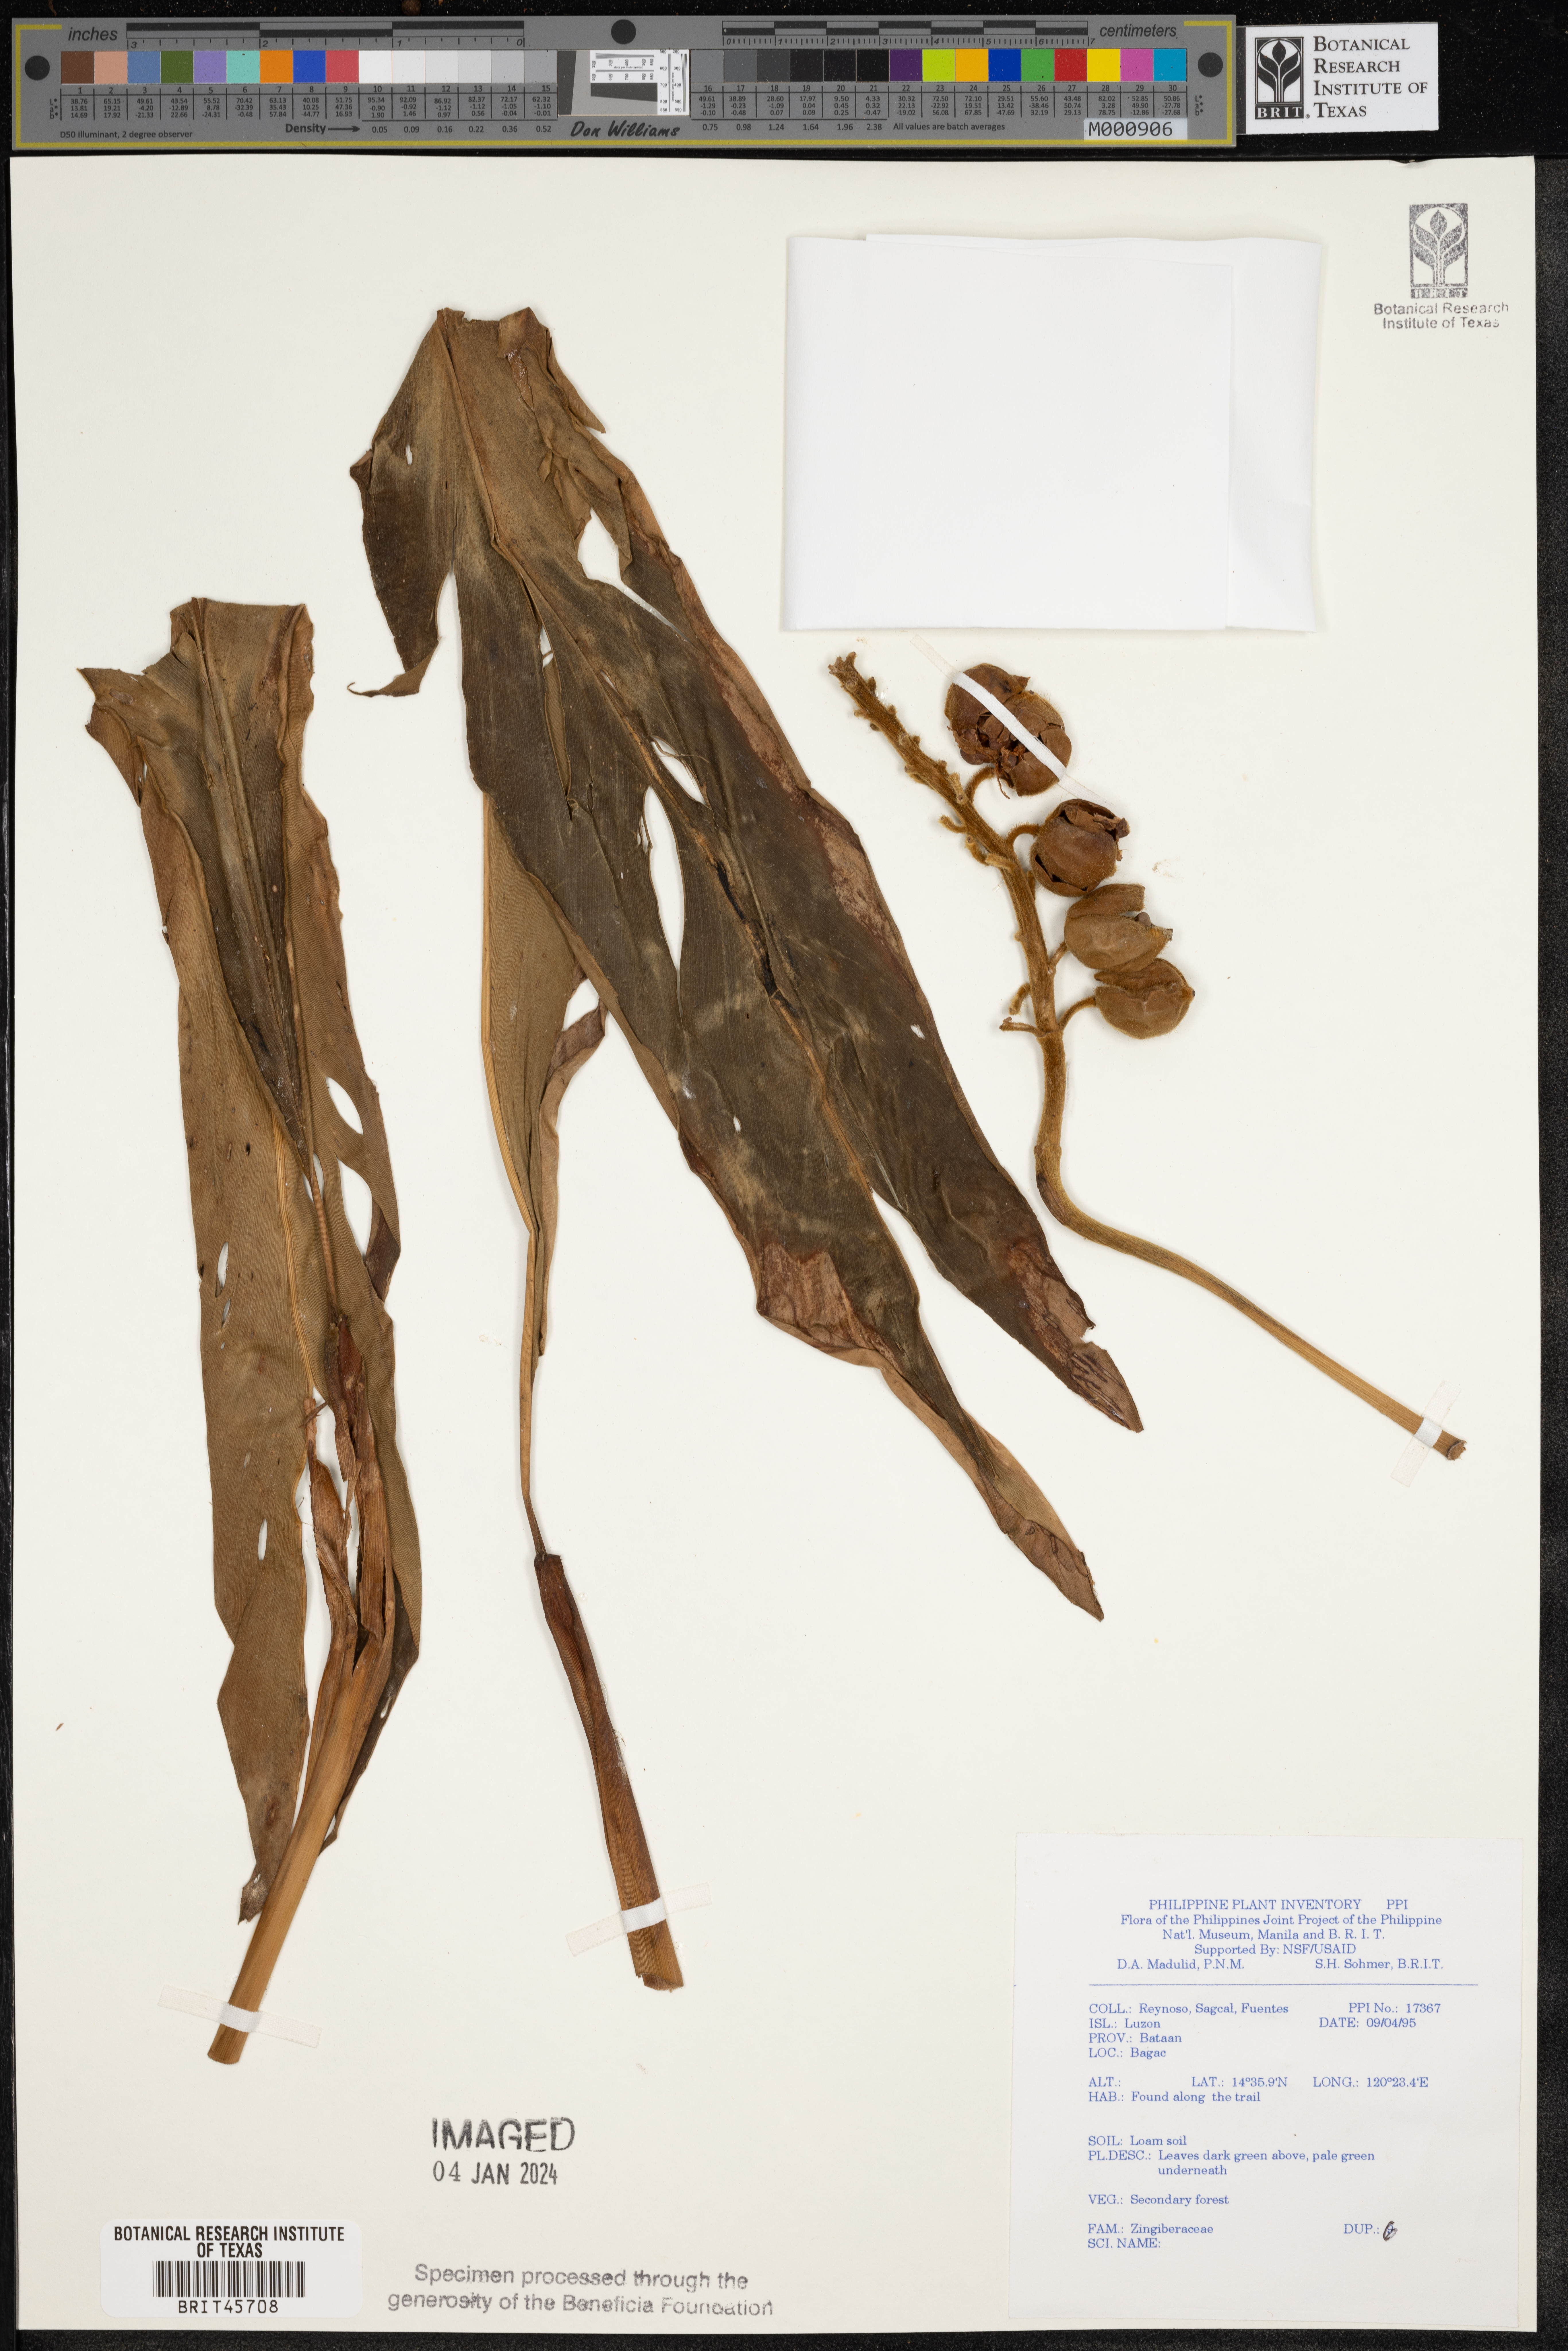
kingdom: Plantae
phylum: Tracheophyta
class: Liliopsida
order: Zingiberales
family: Zingiberaceae
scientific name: Zingiberaceae
